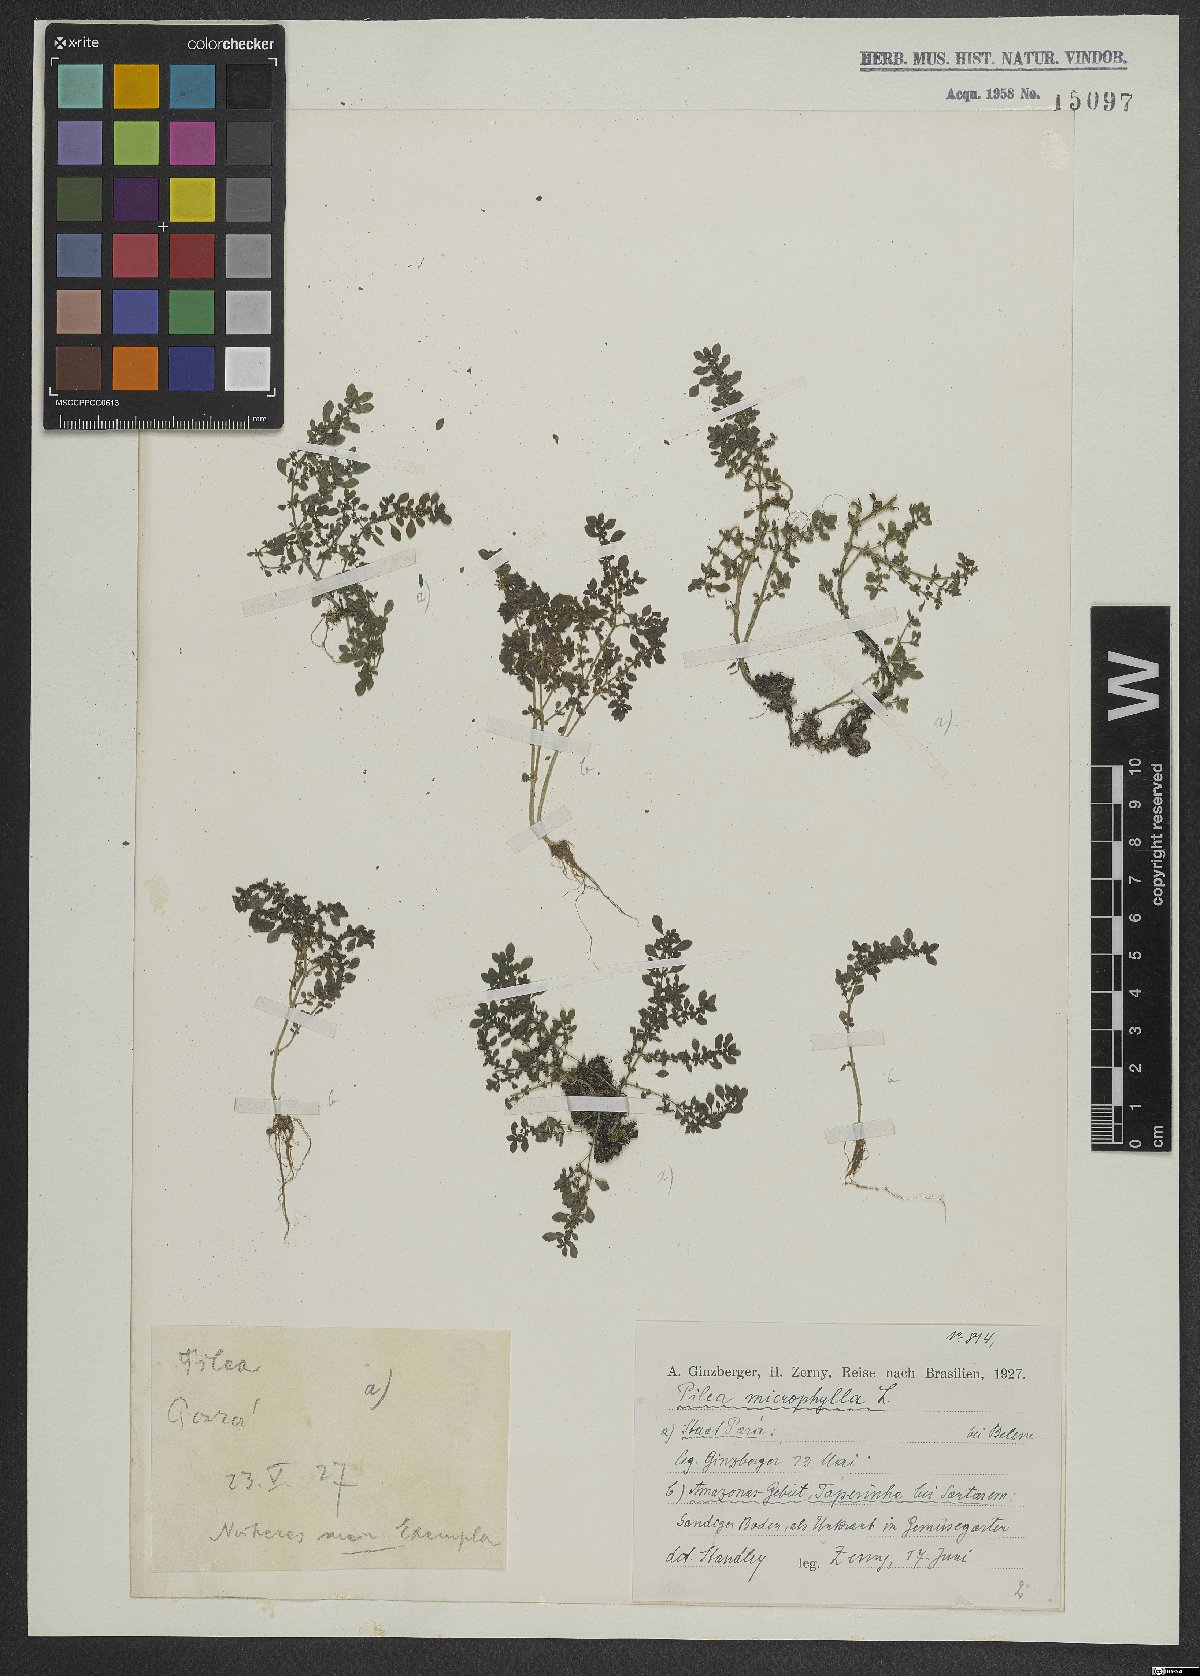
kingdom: Plantae
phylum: Tracheophyta
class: Magnoliopsida
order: Rosales
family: Urticaceae
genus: Pilea
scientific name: Pilea microphylla
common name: Artillery-plant
